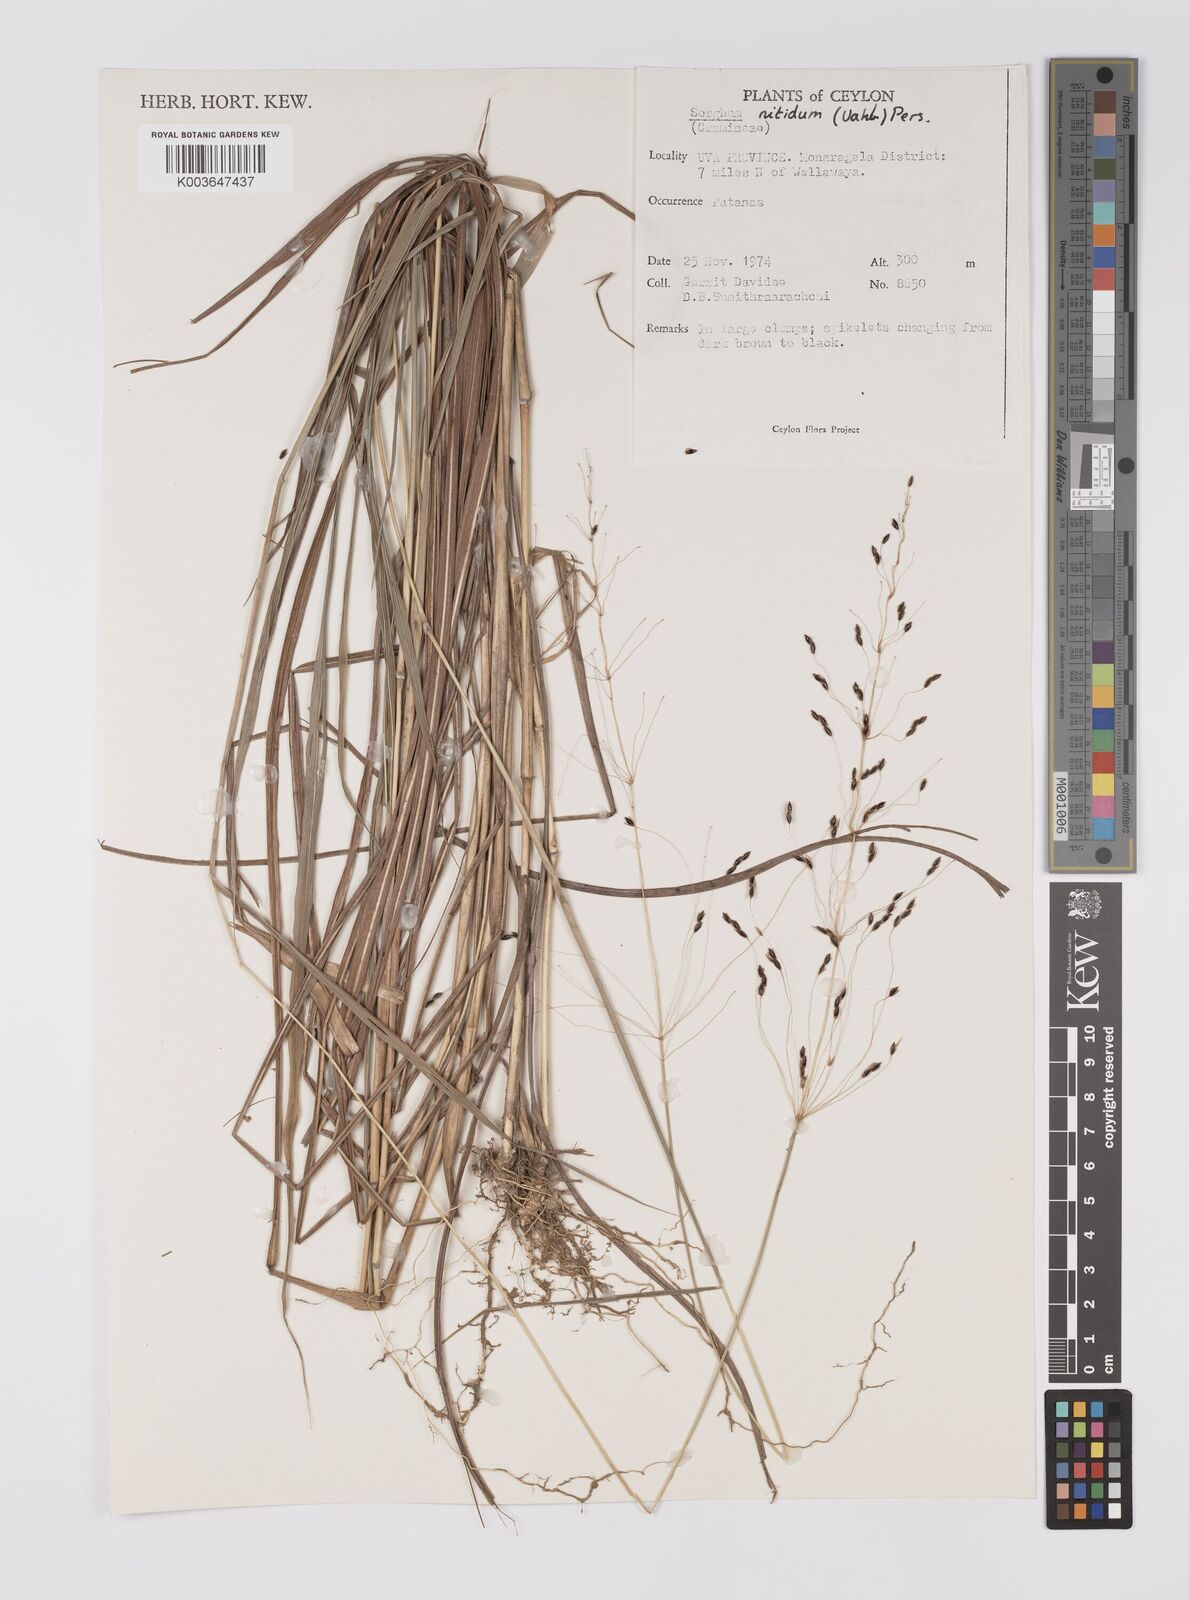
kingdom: Plantae
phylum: Tracheophyta
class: Liliopsida
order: Poales
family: Poaceae
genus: Sorghum
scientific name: Sorghum nitidum
